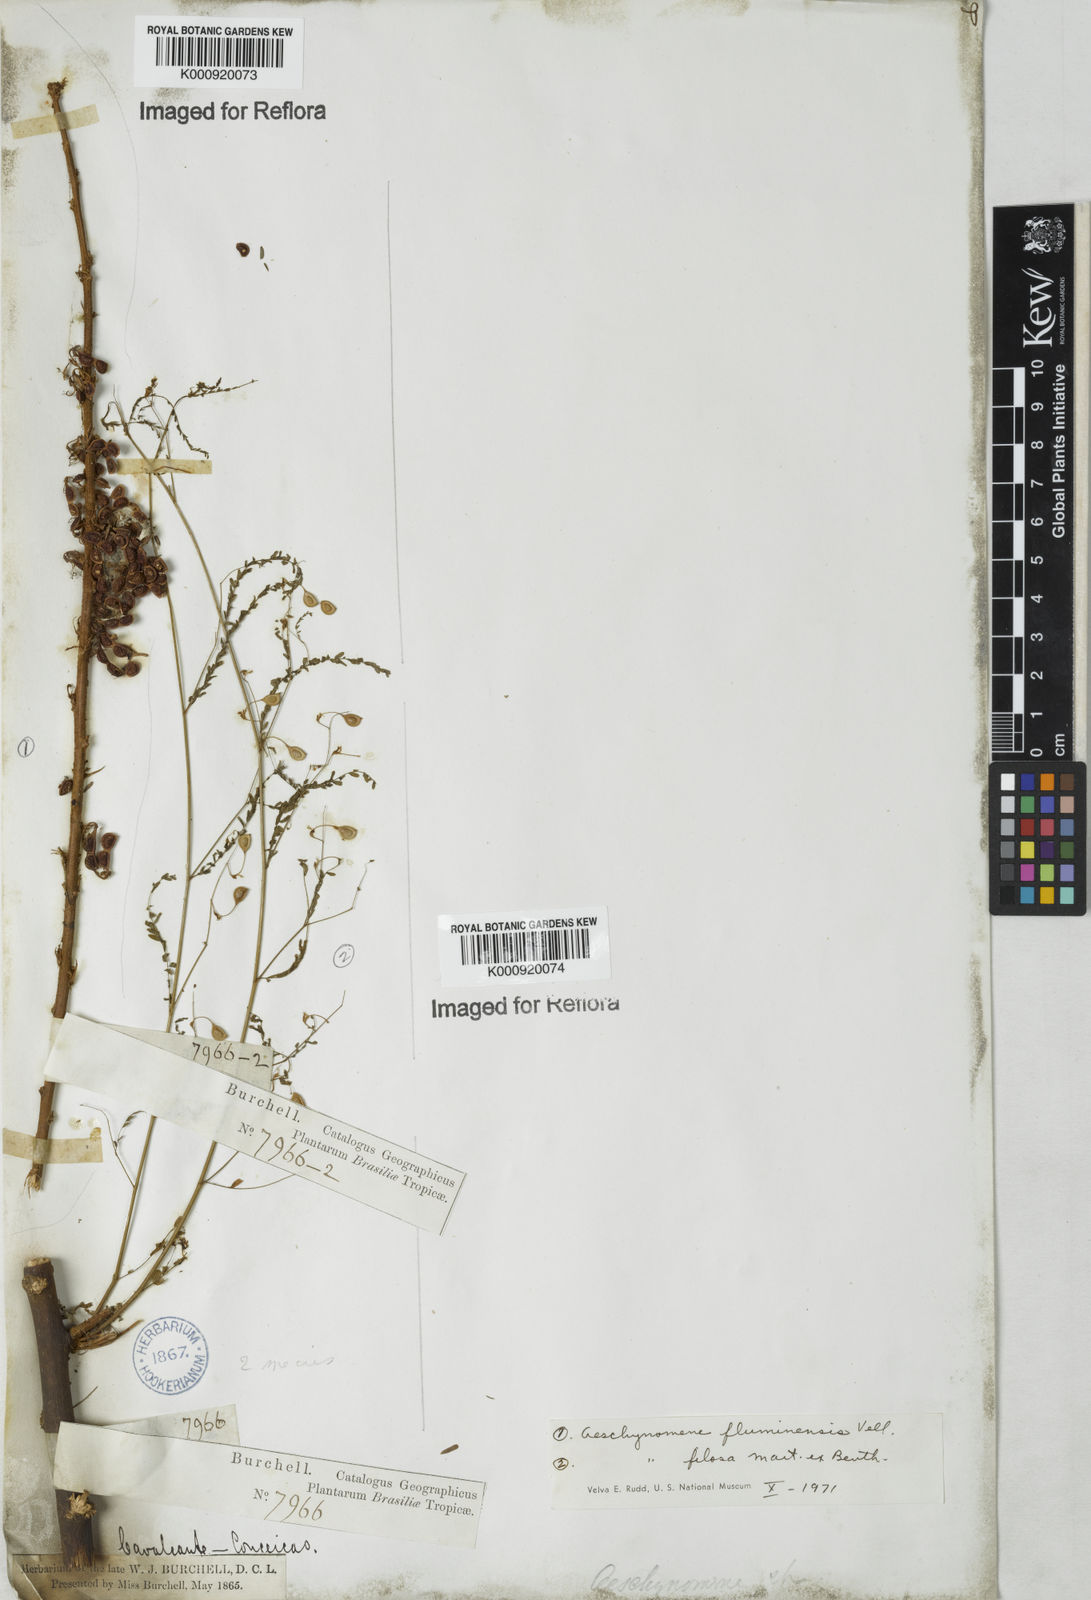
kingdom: Plantae
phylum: Tracheophyta
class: Magnoliopsida
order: Fabales
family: Fabaceae
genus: Aeschynomene
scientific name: Aeschynomene fluminensis
